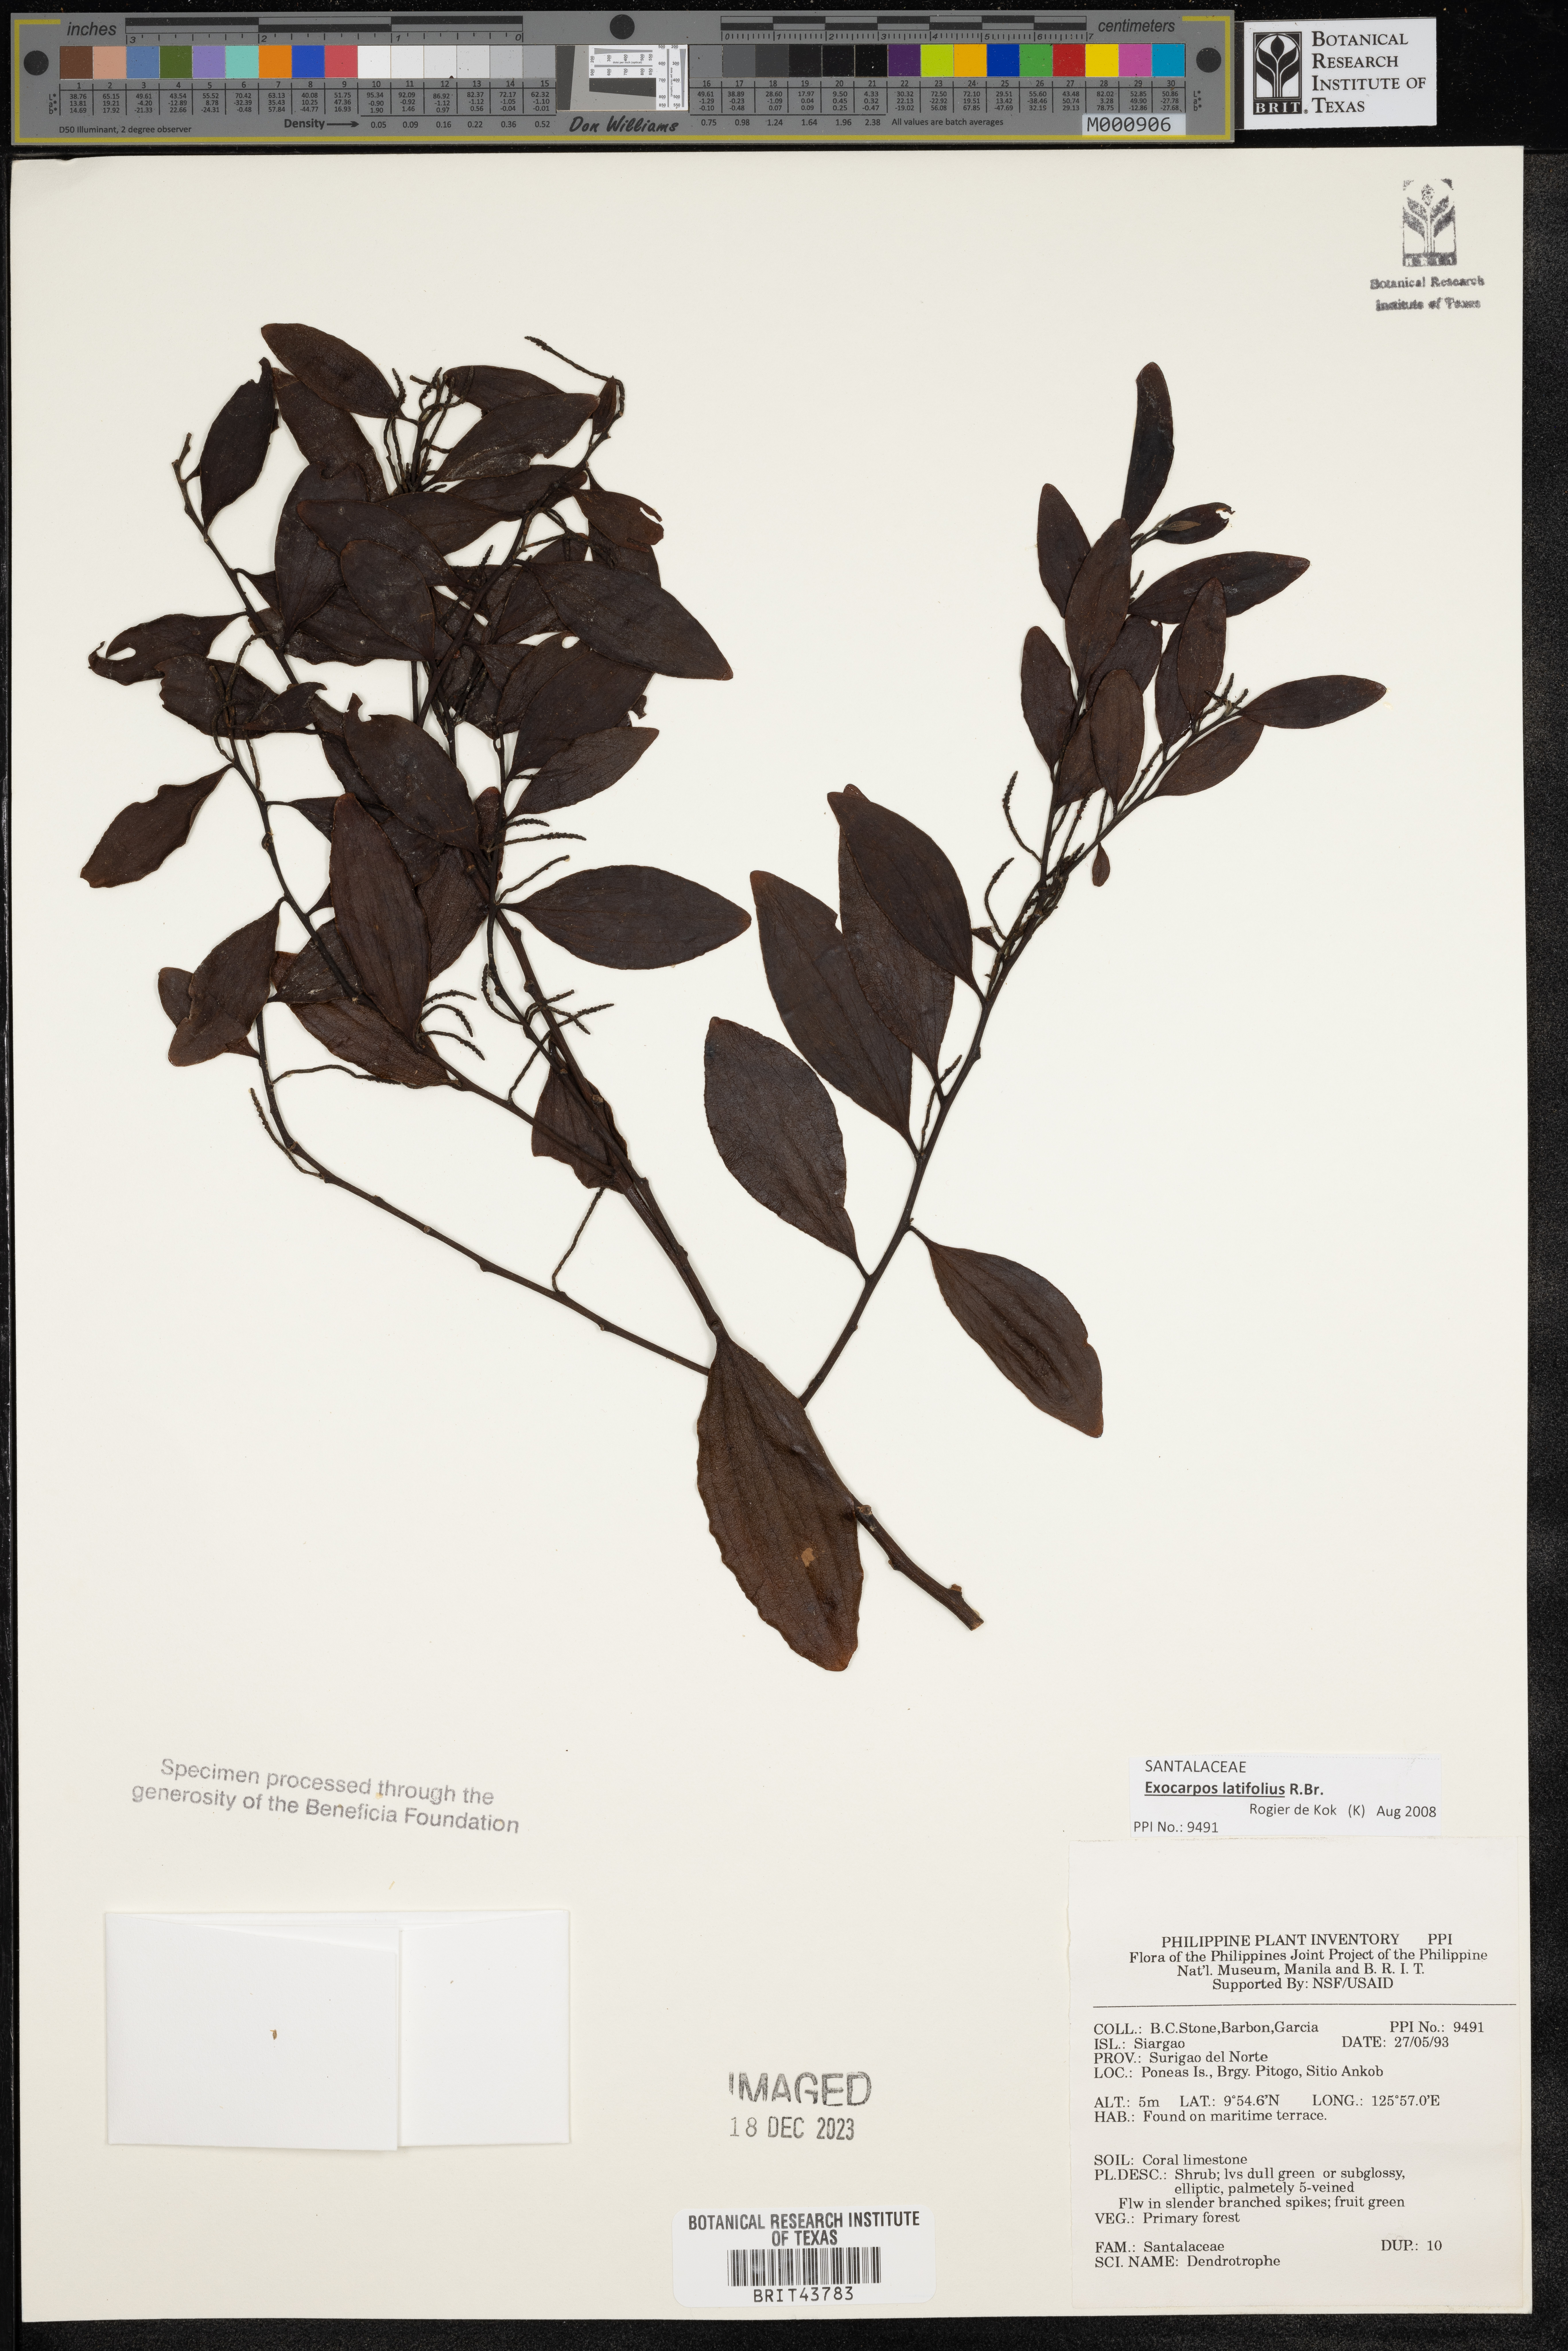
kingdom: Plantae
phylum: Tracheophyta
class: Magnoliopsida
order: Santalales
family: Amphorogynaceae
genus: Dendrotrophe
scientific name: Dendrotrophe
